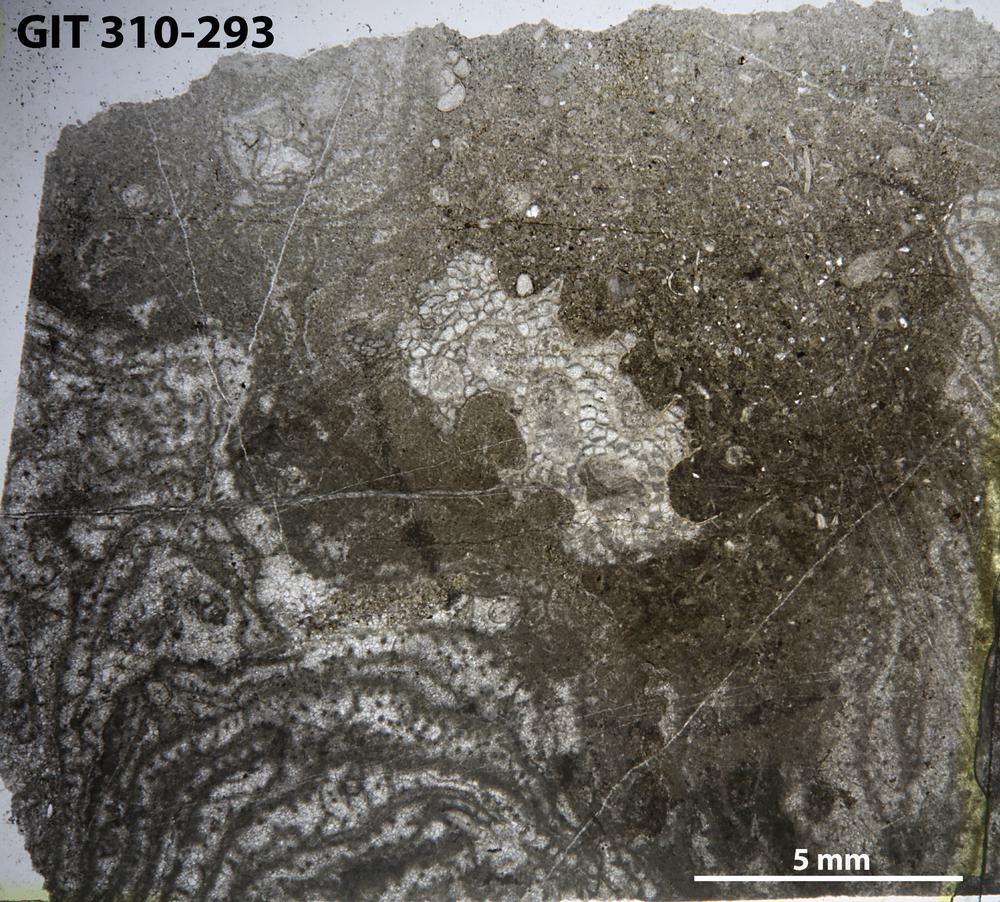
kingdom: Animalia
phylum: Porifera
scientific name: Porifera
